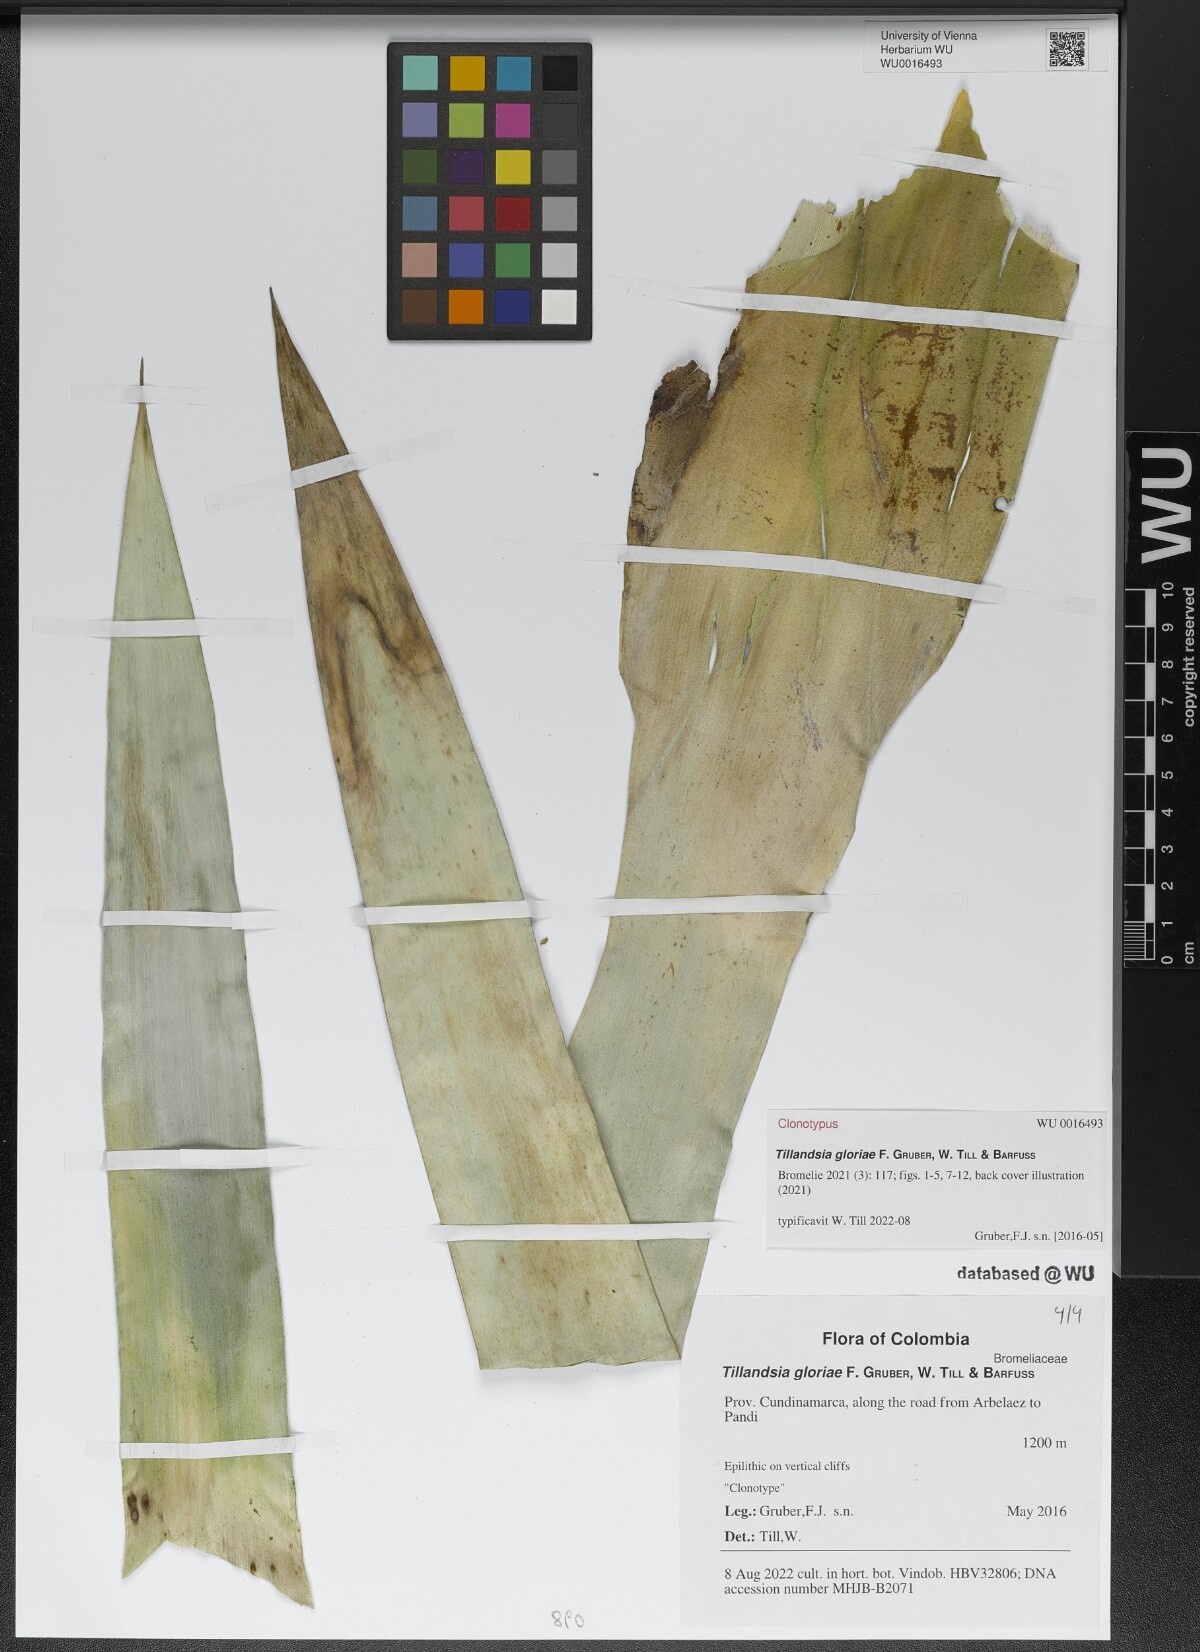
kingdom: Plantae
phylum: Tracheophyta
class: Liliopsida
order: Poales
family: Bromeliaceae
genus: Tillandsia
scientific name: Tillandsia
